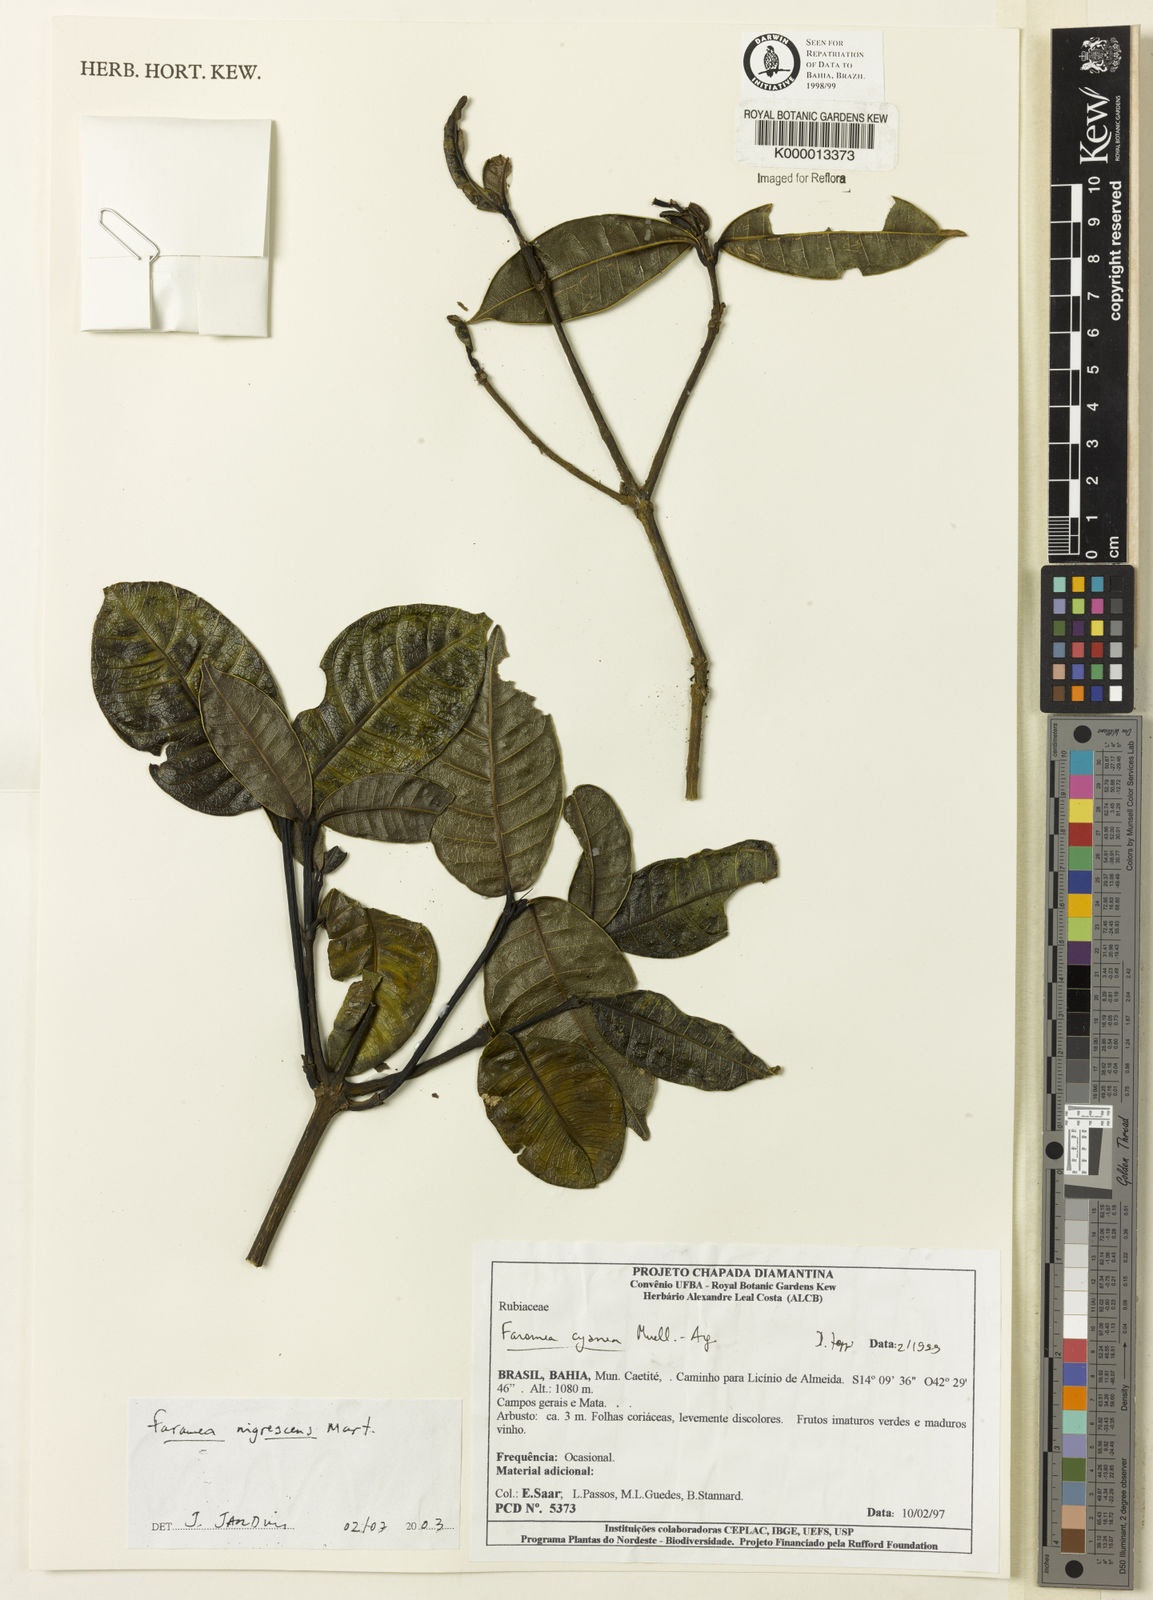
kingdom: Plantae
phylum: Tracheophyta
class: Magnoliopsida
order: Gentianales
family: Rubiaceae
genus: Faramea
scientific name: Faramea nigrescens
